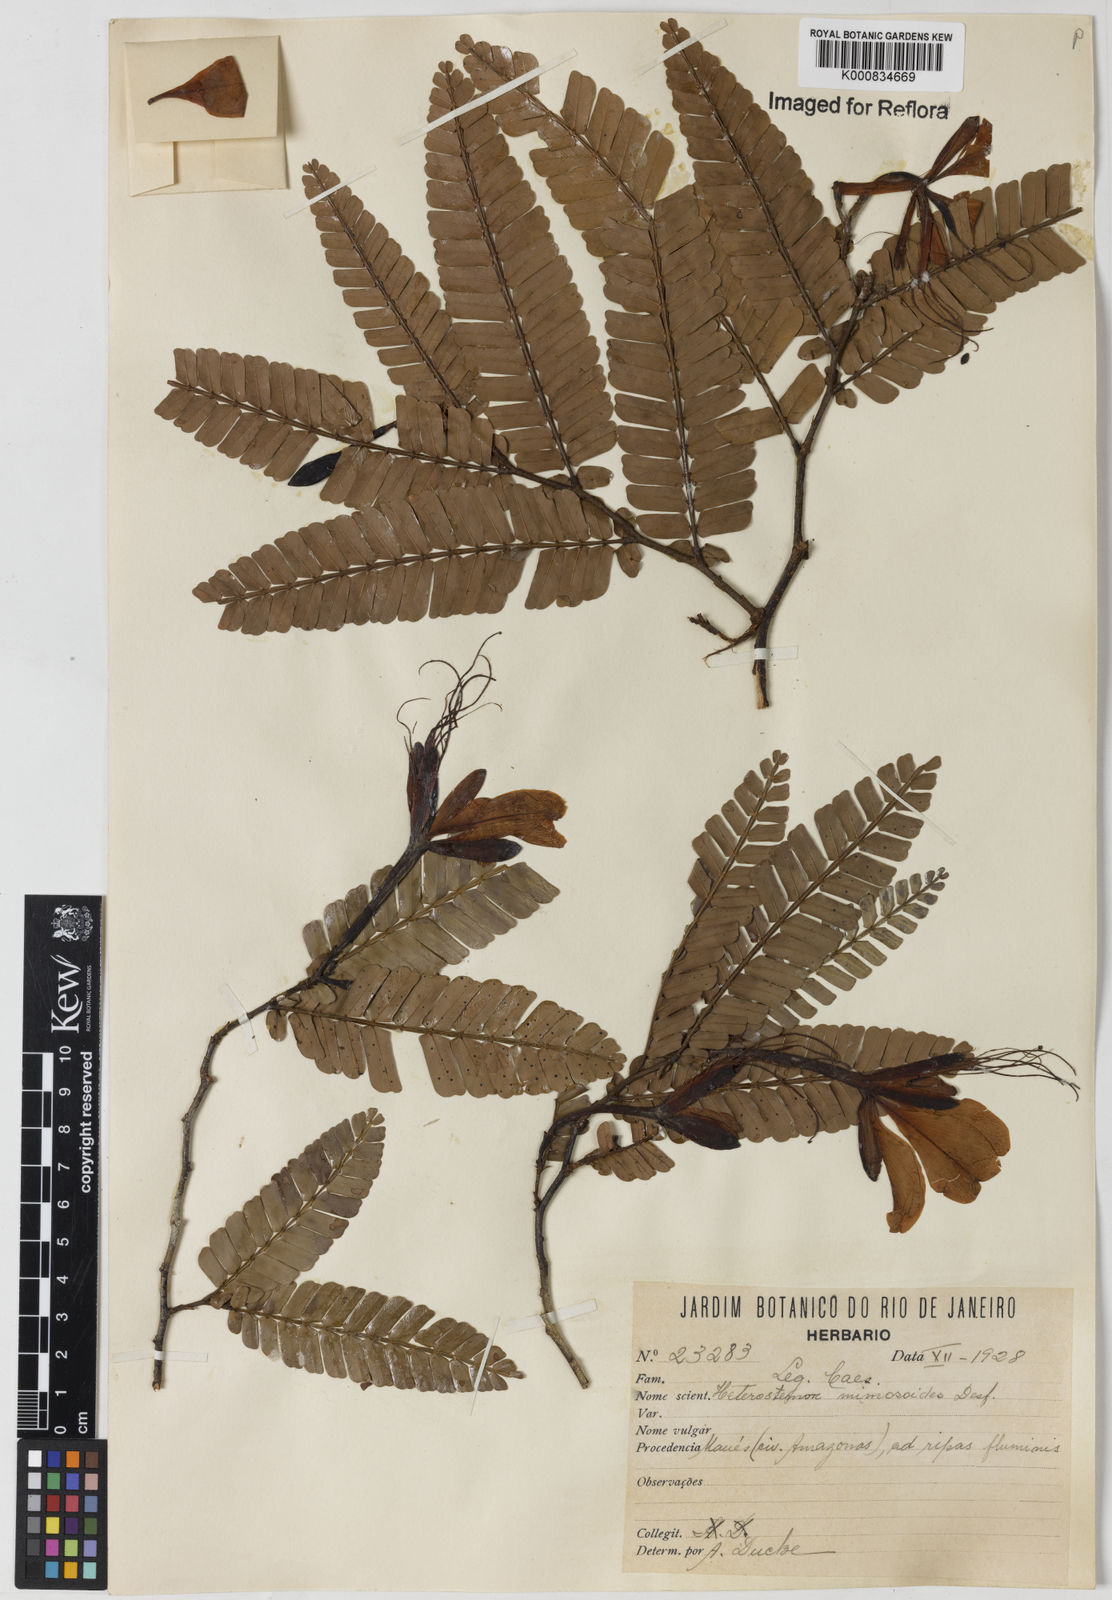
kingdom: Plantae
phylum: Tracheophyta
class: Magnoliopsida
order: Fabales
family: Fabaceae
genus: Heterostemon
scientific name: Heterostemon mimosoides
